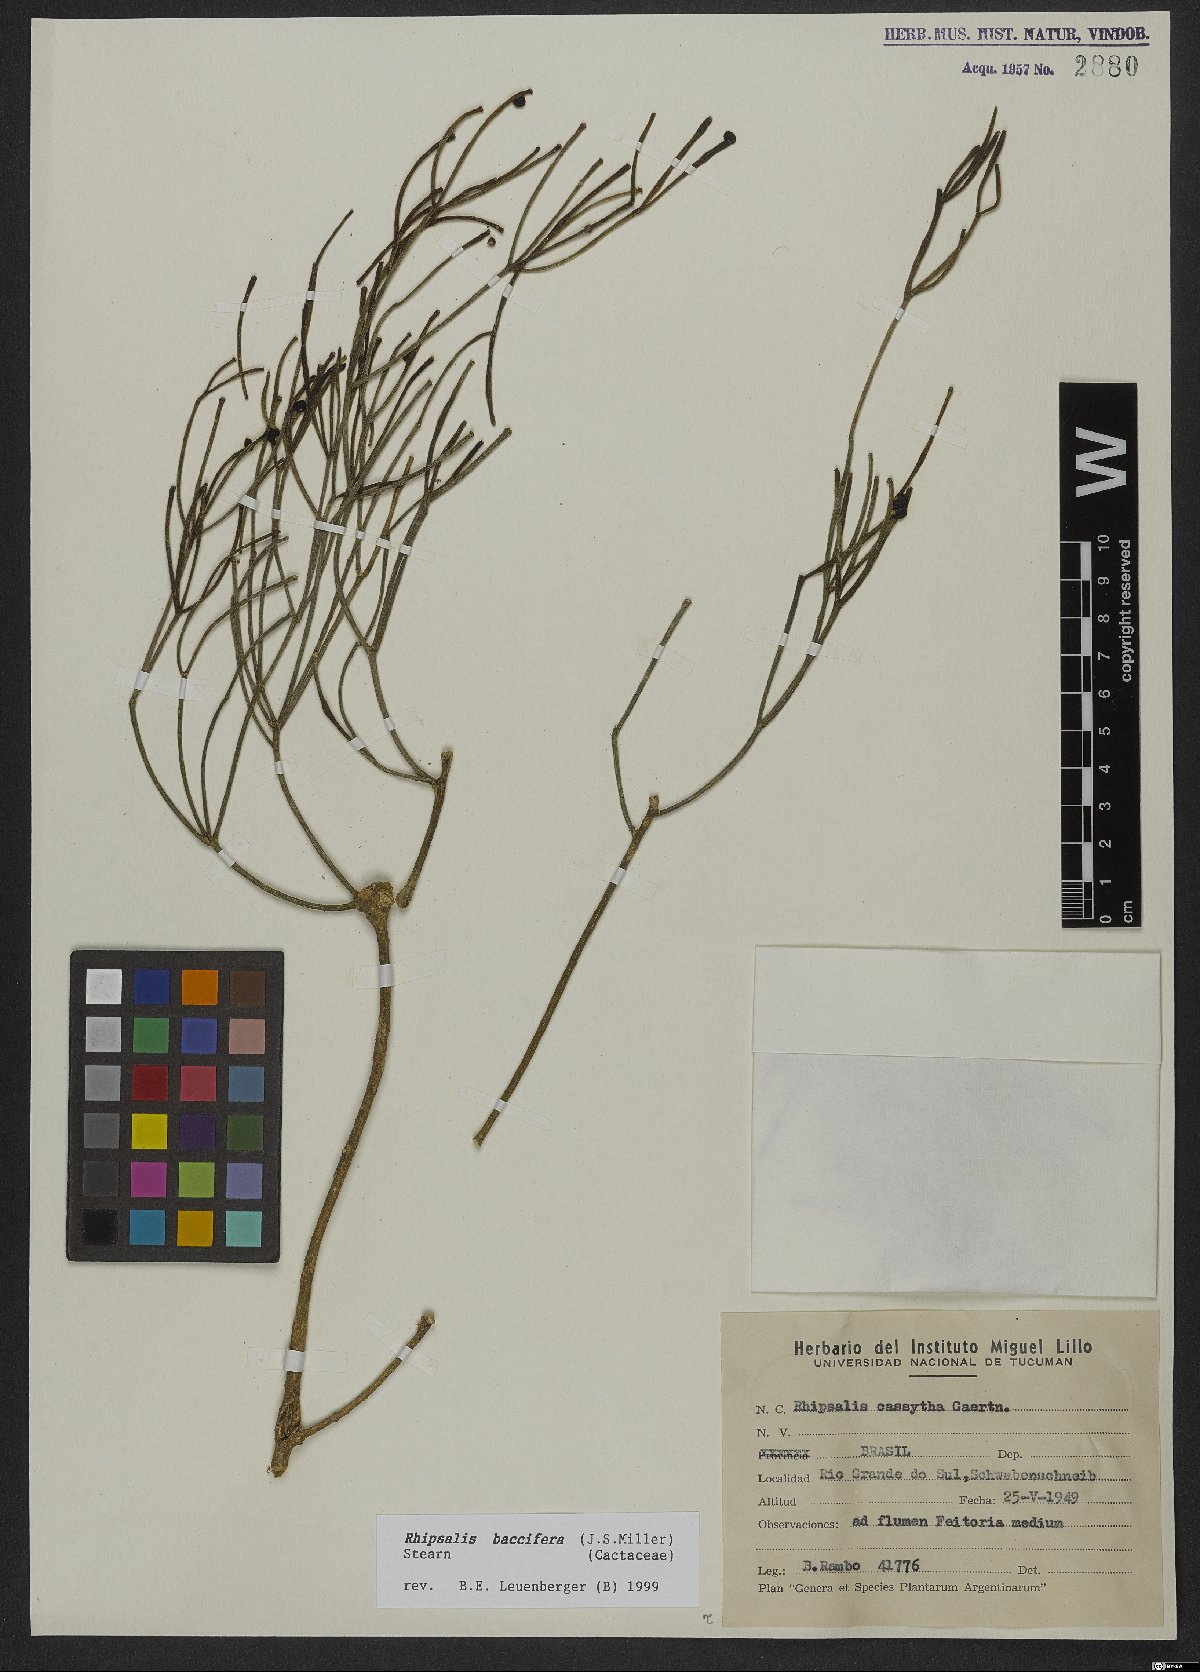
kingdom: Plantae
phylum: Tracheophyta
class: Magnoliopsida
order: Caryophyllales
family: Cactaceae
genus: Rhipsalis
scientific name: Rhipsalis baccifera
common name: Mistletoe cactus
